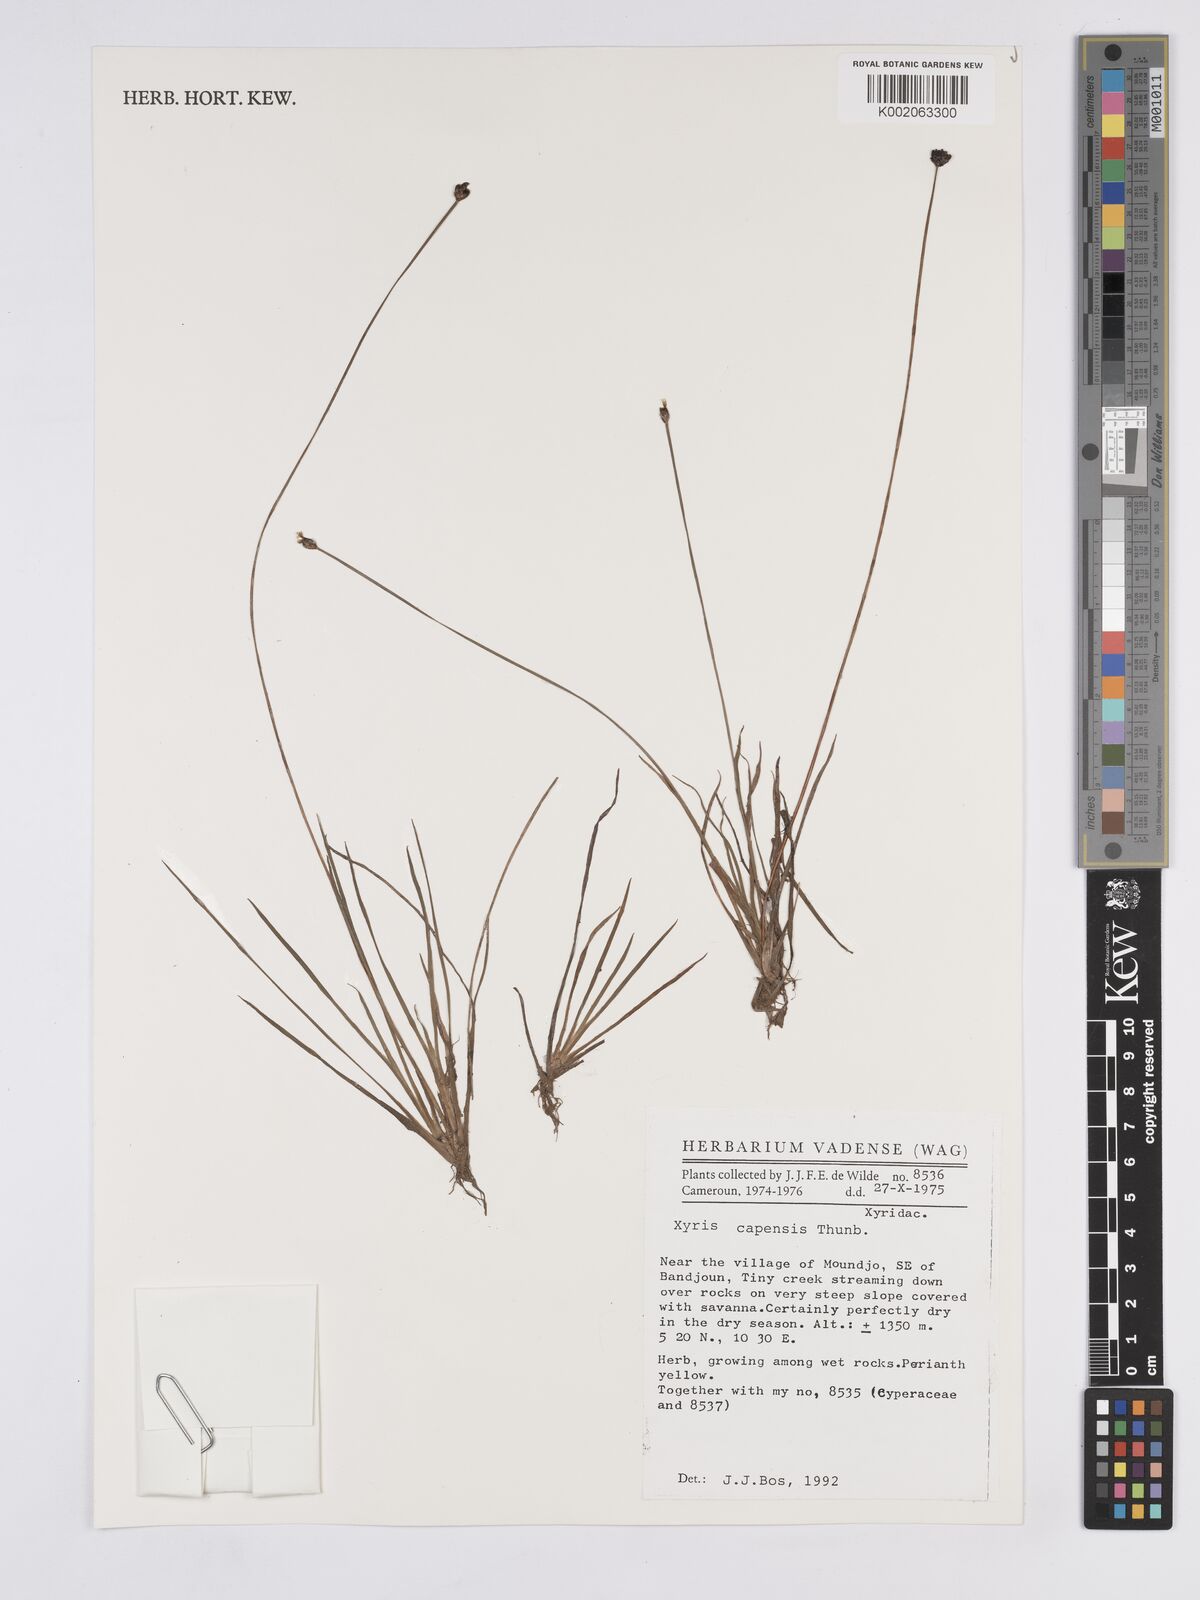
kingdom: Plantae
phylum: Tracheophyta
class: Liliopsida
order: Poales
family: Xyridaceae
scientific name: Xyridaceae
